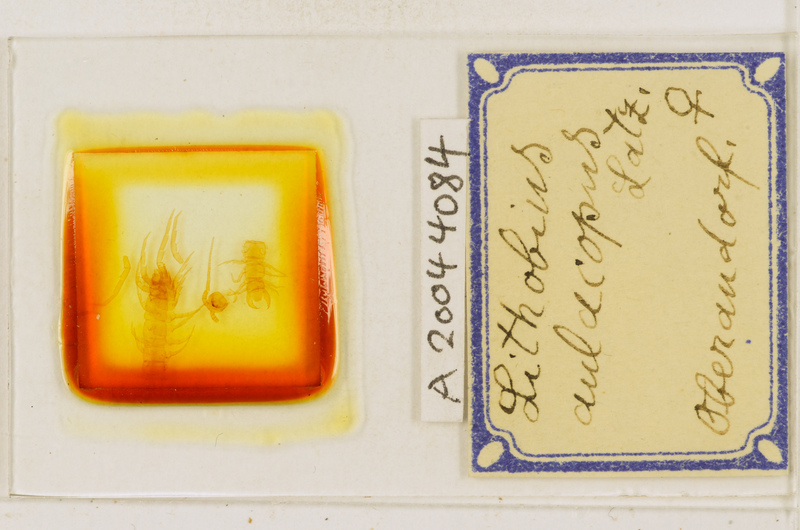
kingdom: Animalia
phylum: Arthropoda
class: Chilopoda
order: Lithobiomorpha
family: Lithobiidae
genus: Lithobius
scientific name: Lithobius macilentus
